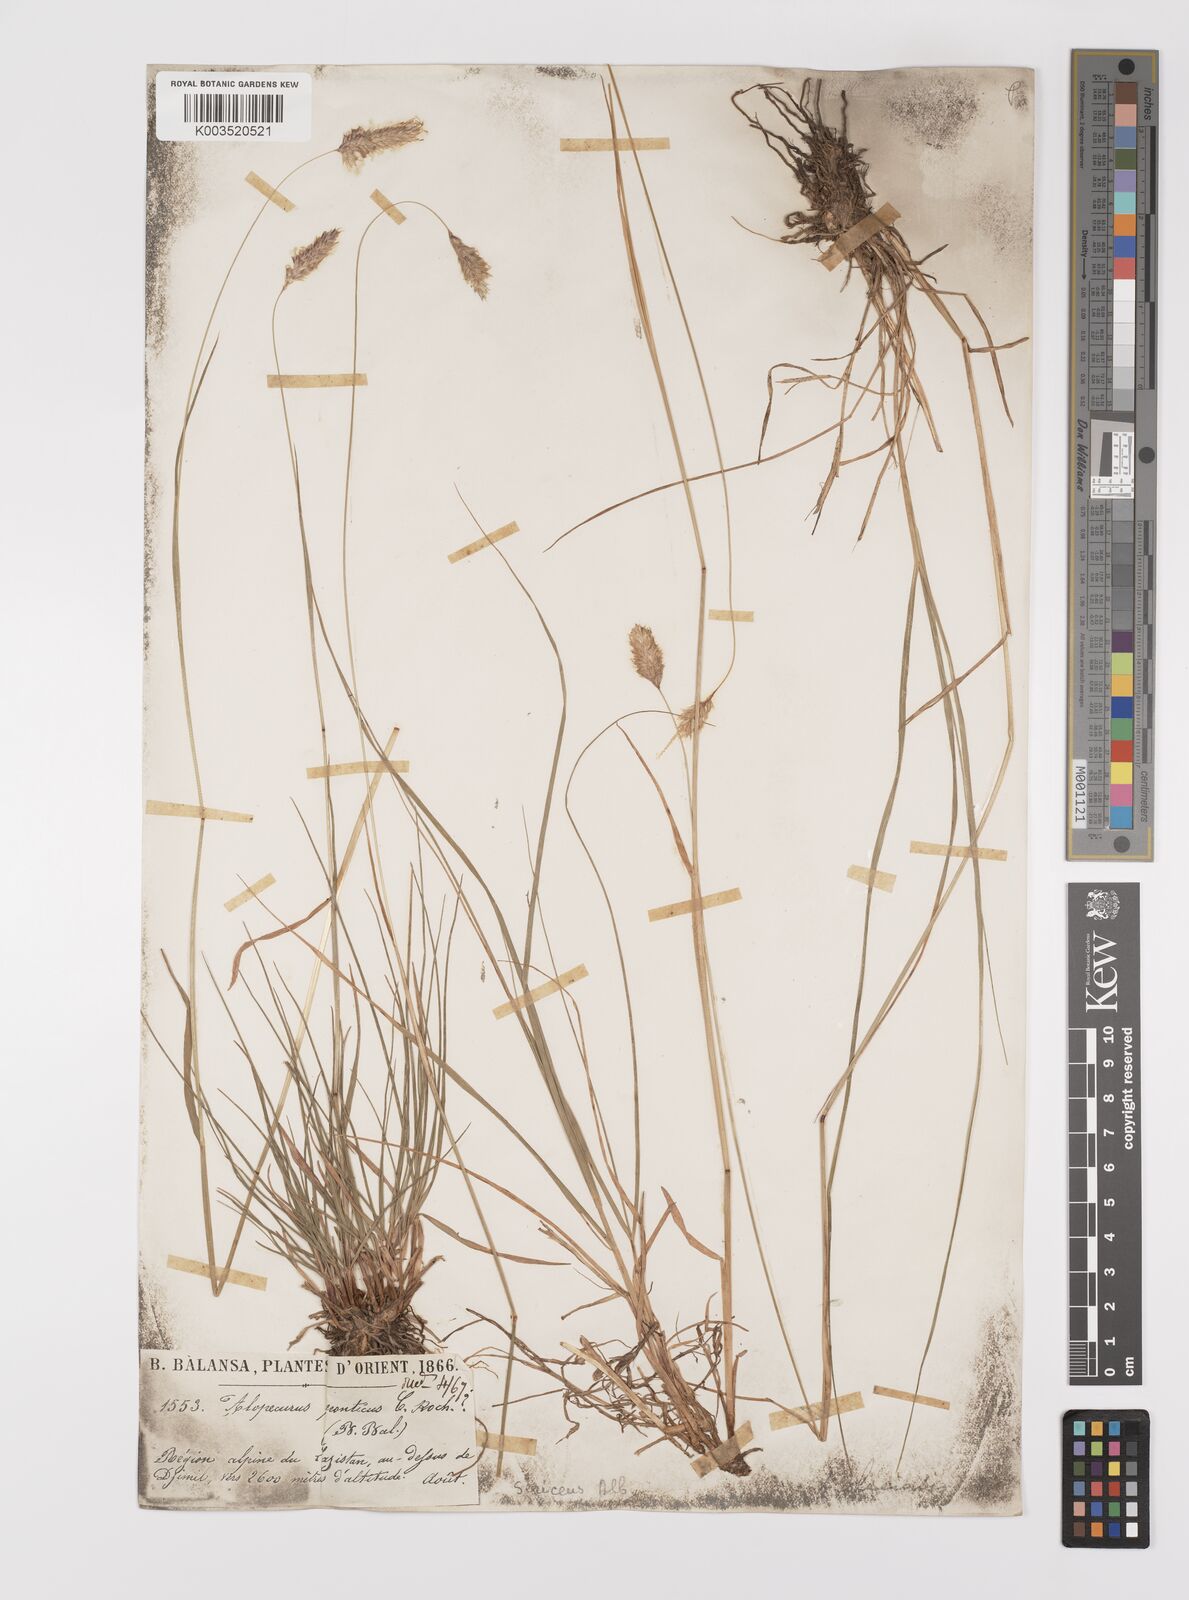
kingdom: Plantae
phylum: Tracheophyta
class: Liliopsida
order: Poales
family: Poaceae
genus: Alopecurus
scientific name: Alopecurus glacialis
